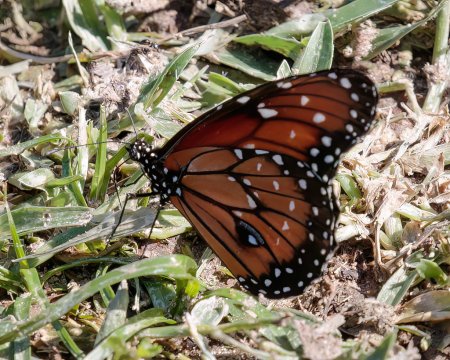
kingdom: Animalia
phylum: Arthropoda
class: Insecta
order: Lepidoptera
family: Nymphalidae
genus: Danaus
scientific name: Danaus eresimus
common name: Soldier
